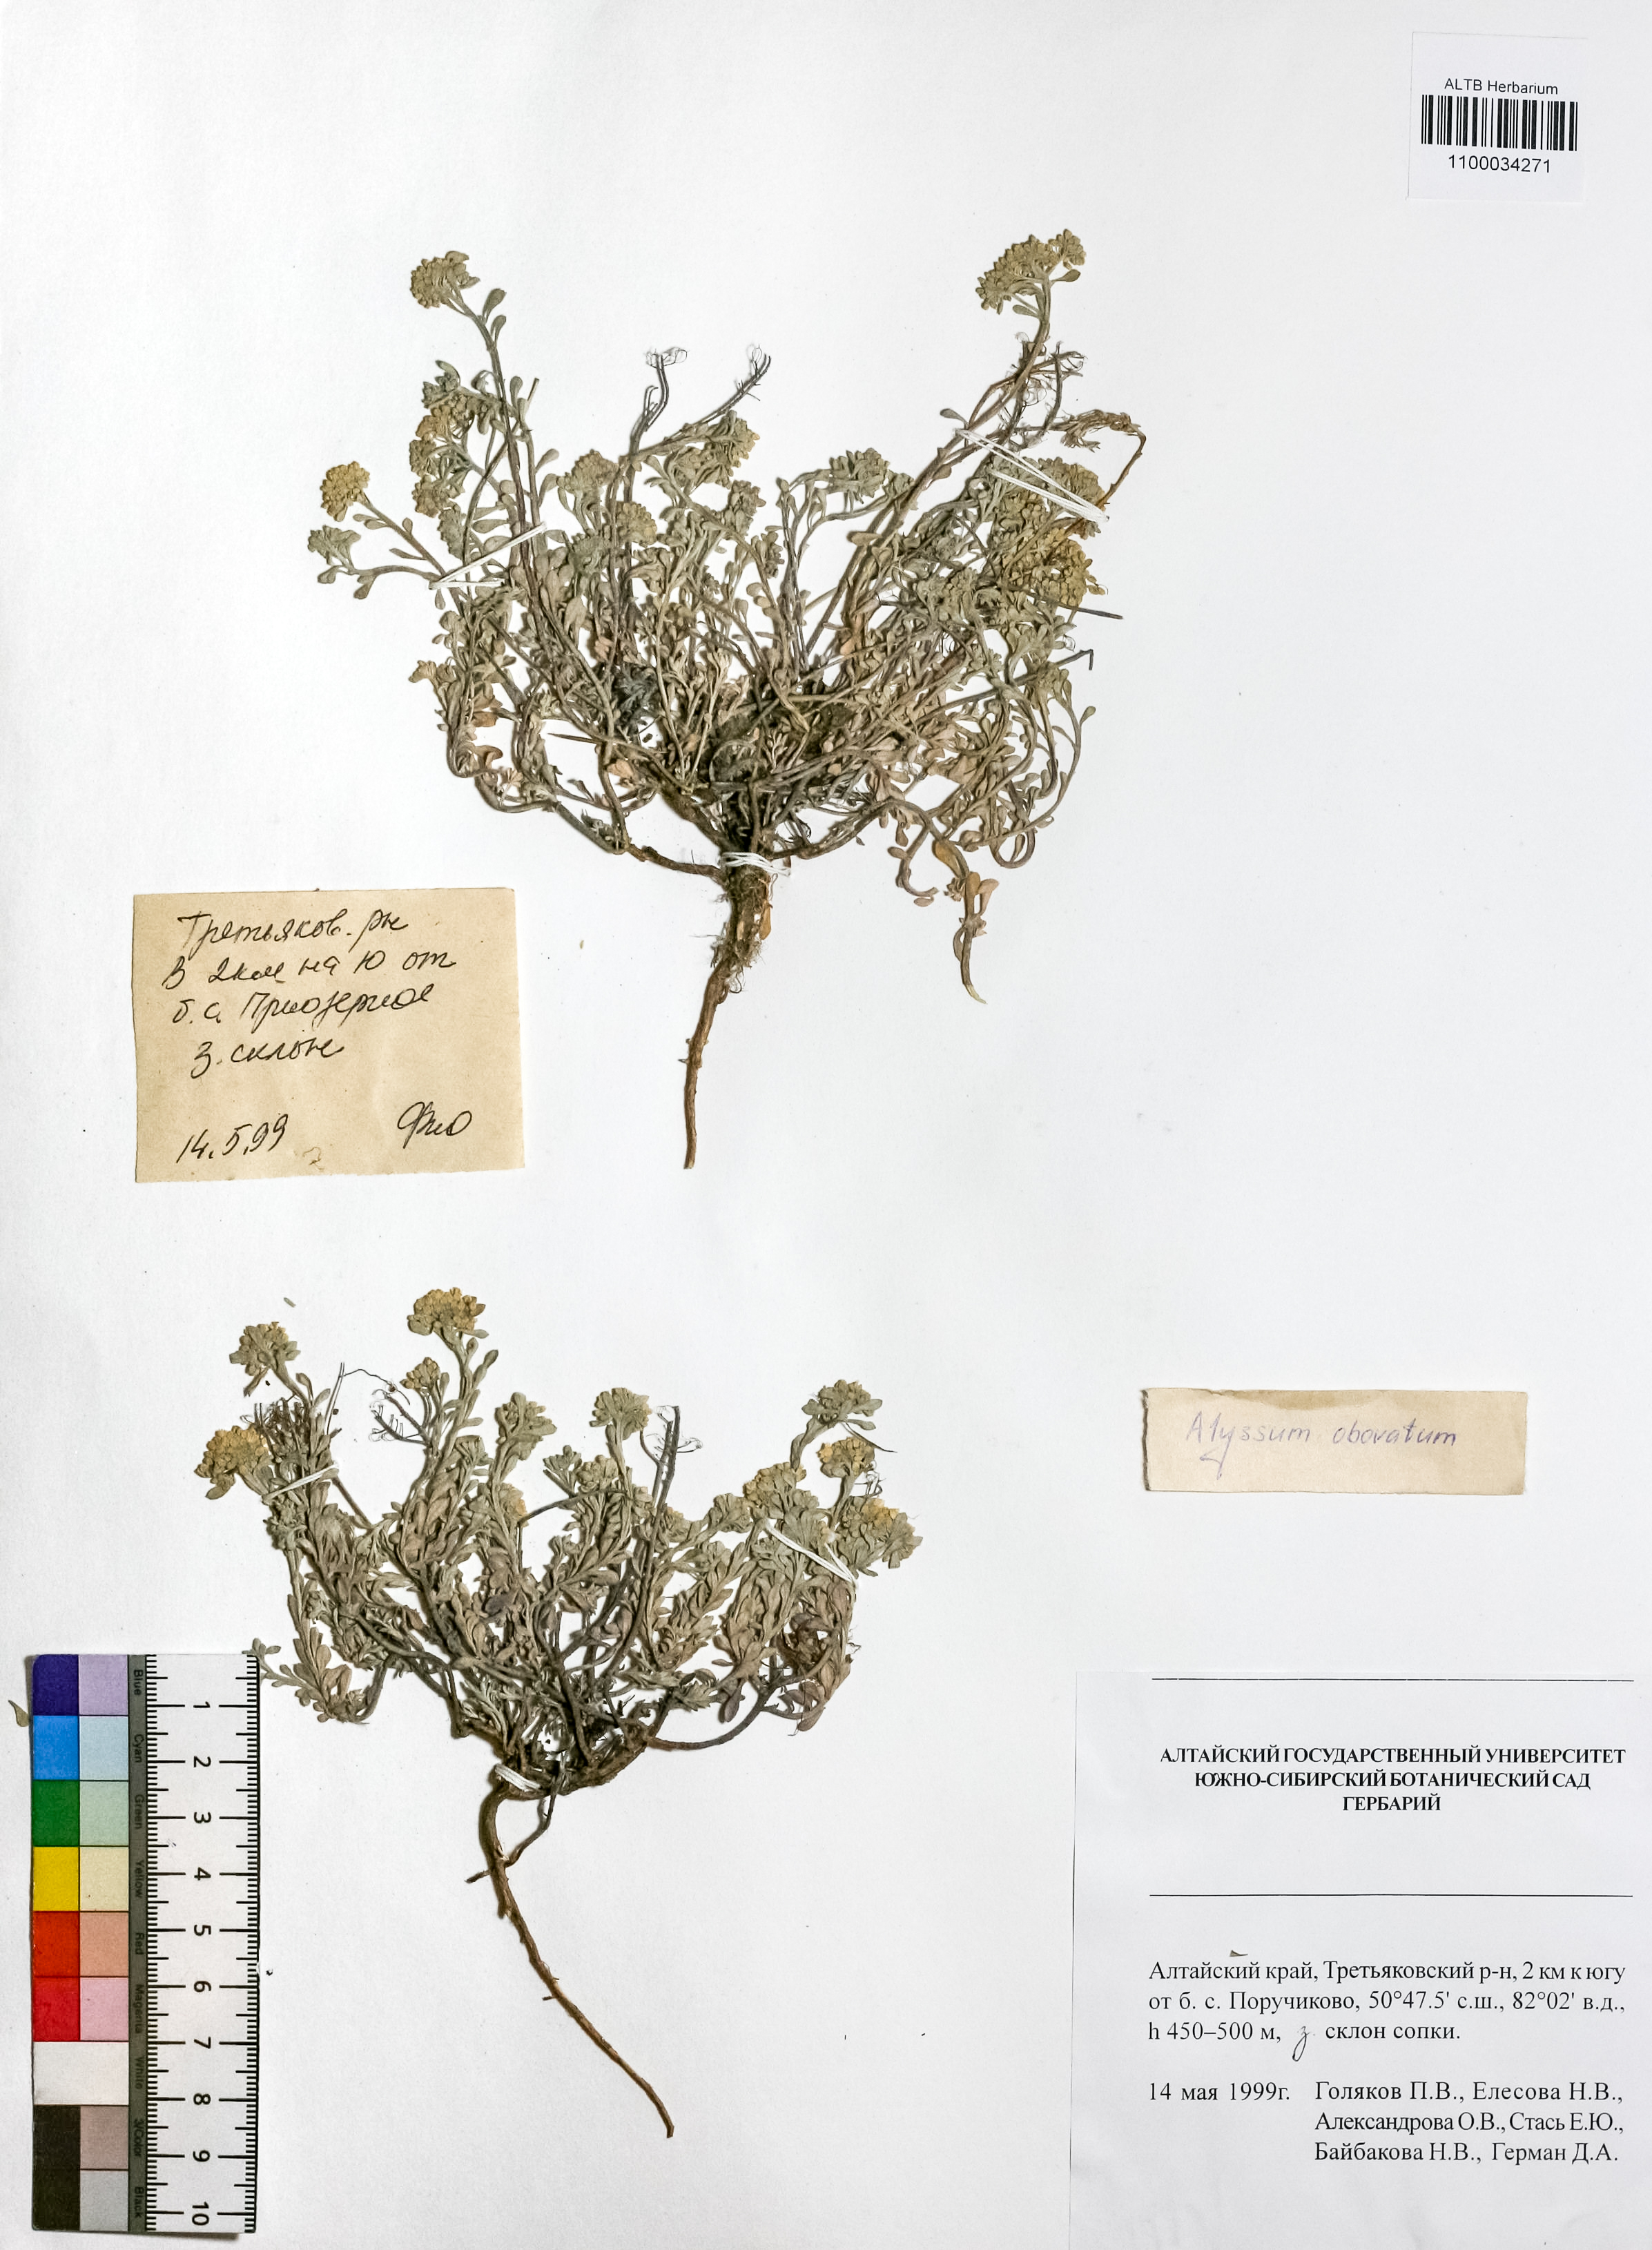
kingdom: Plantae
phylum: Tracheophyta
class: Magnoliopsida
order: Brassicales
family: Brassicaceae
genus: Odontarrhena
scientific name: Odontarrhena obovata
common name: American alyssum
